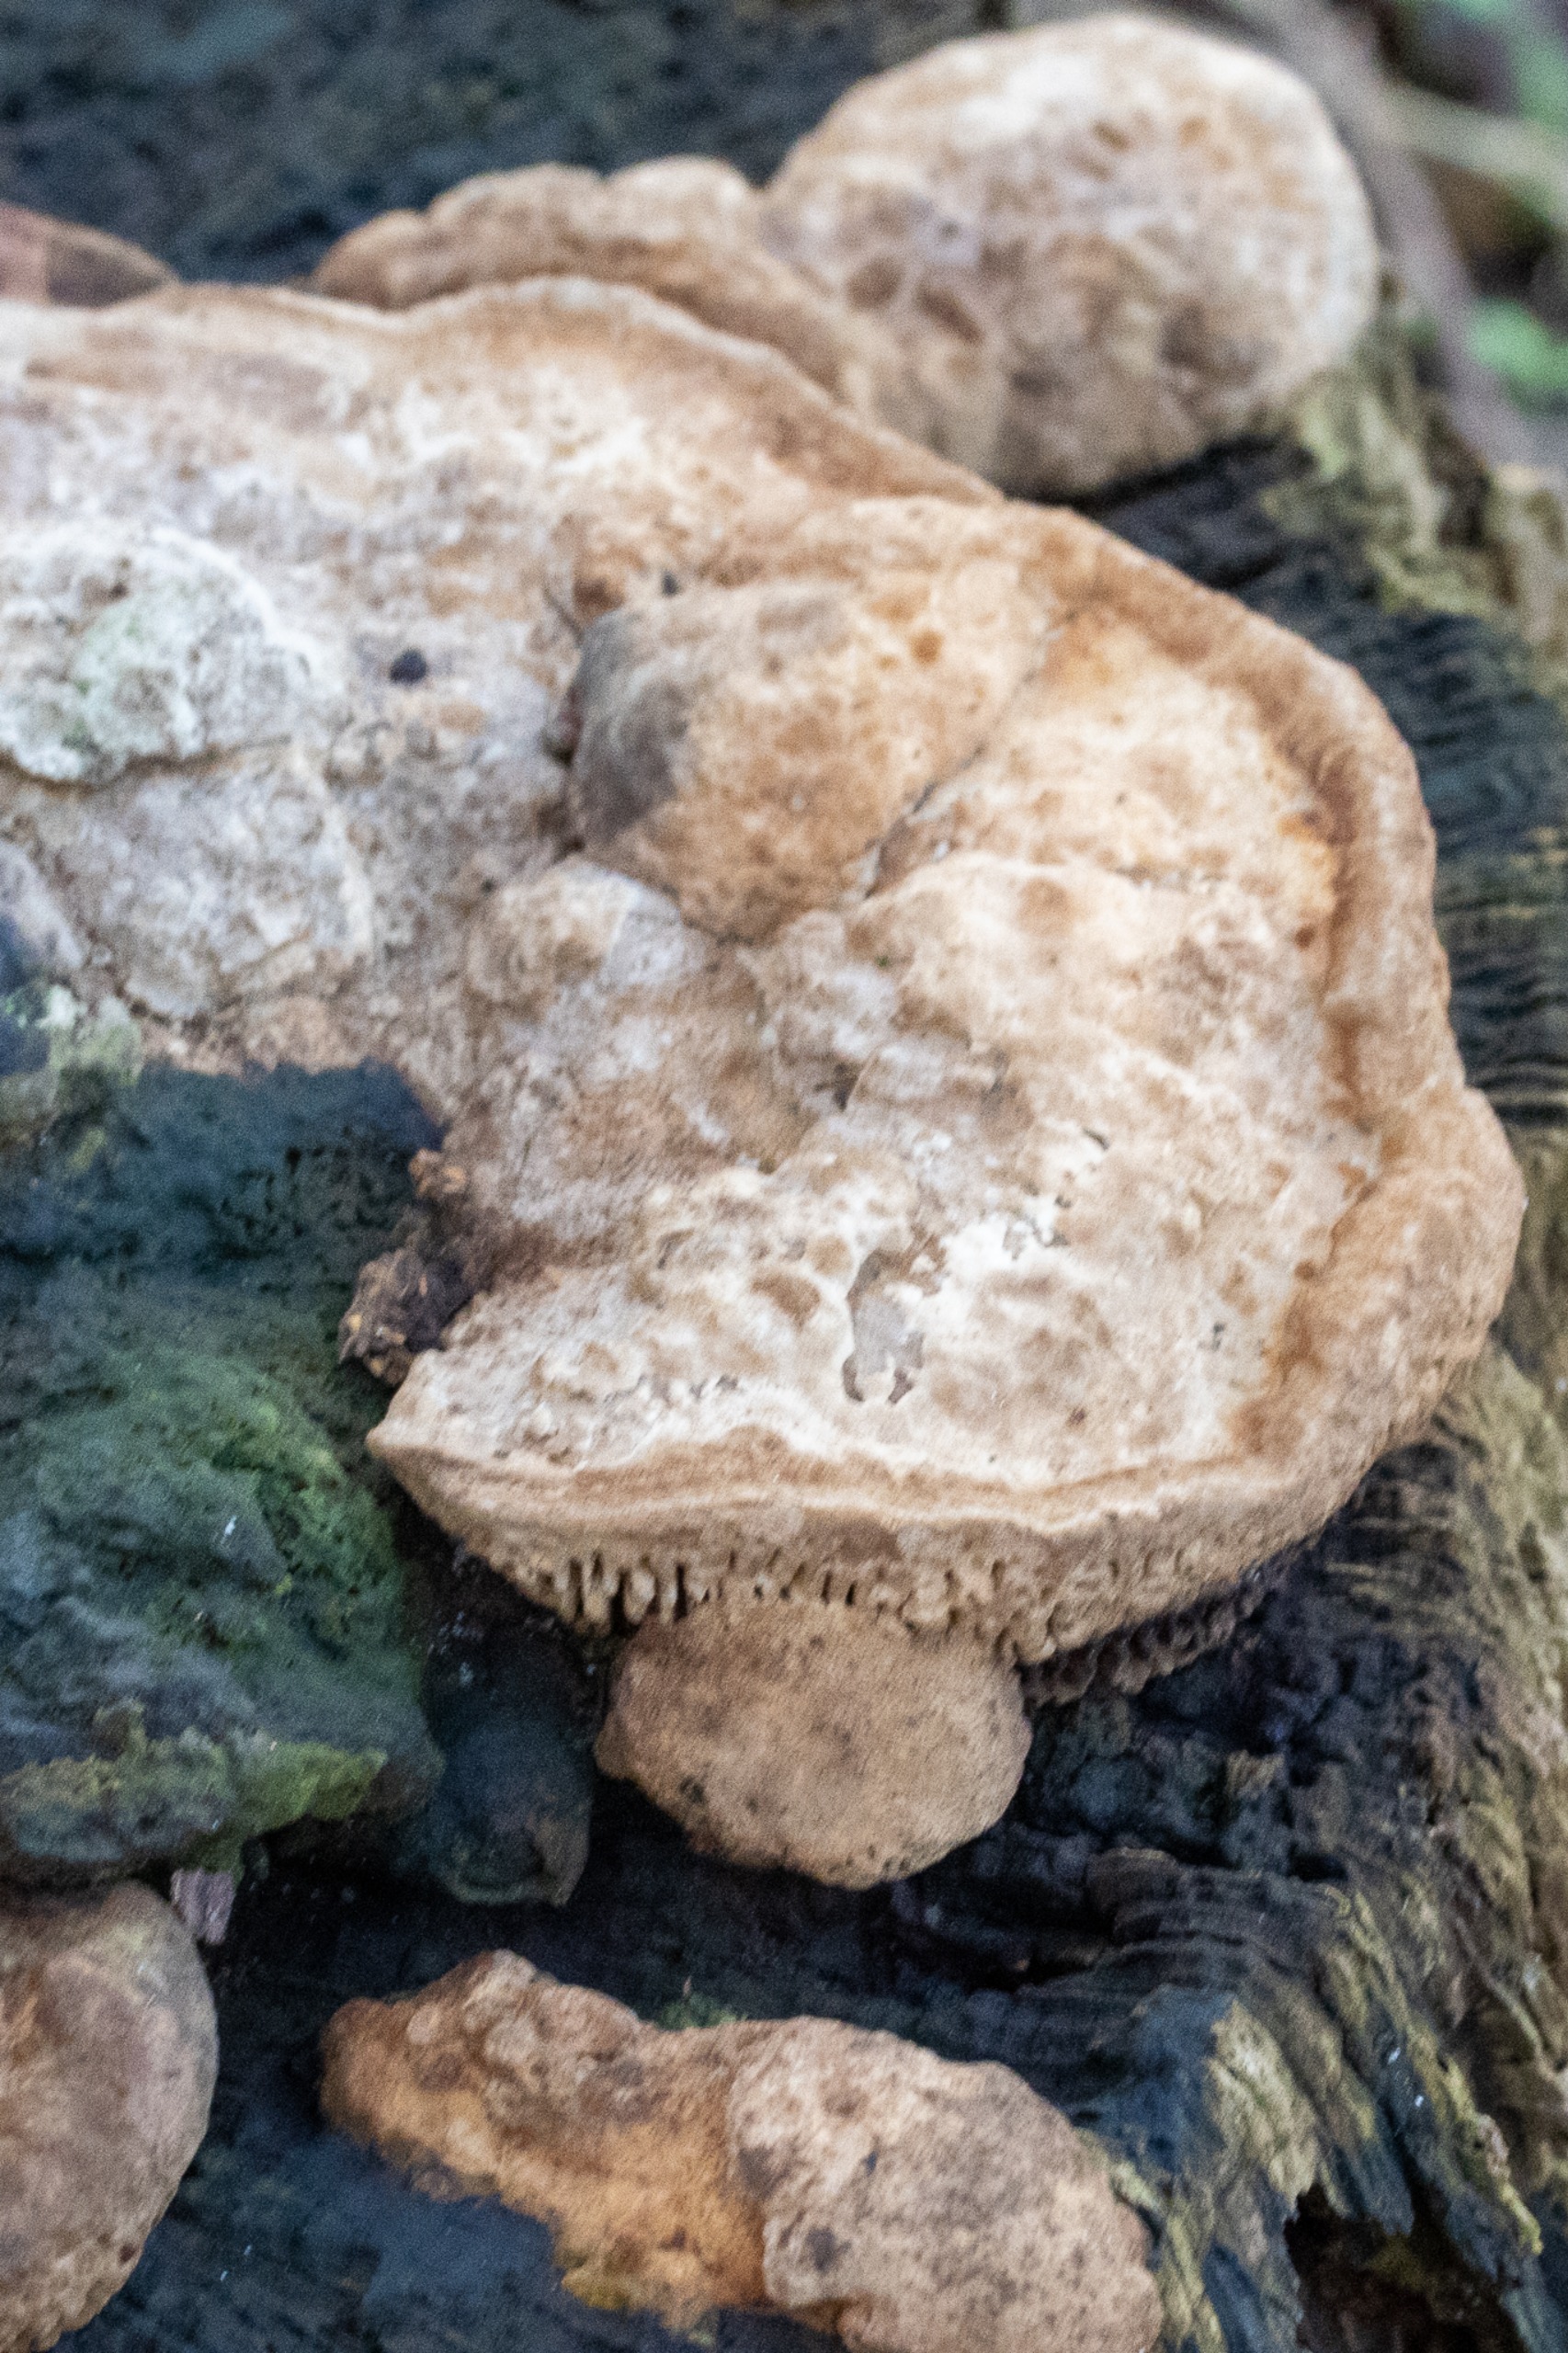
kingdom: Fungi
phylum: Basidiomycota
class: Agaricomycetes
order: Polyporales
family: Fomitopsidaceae
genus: Daedalea
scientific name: Daedalea quercina
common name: Ege-labyrintsvamp
